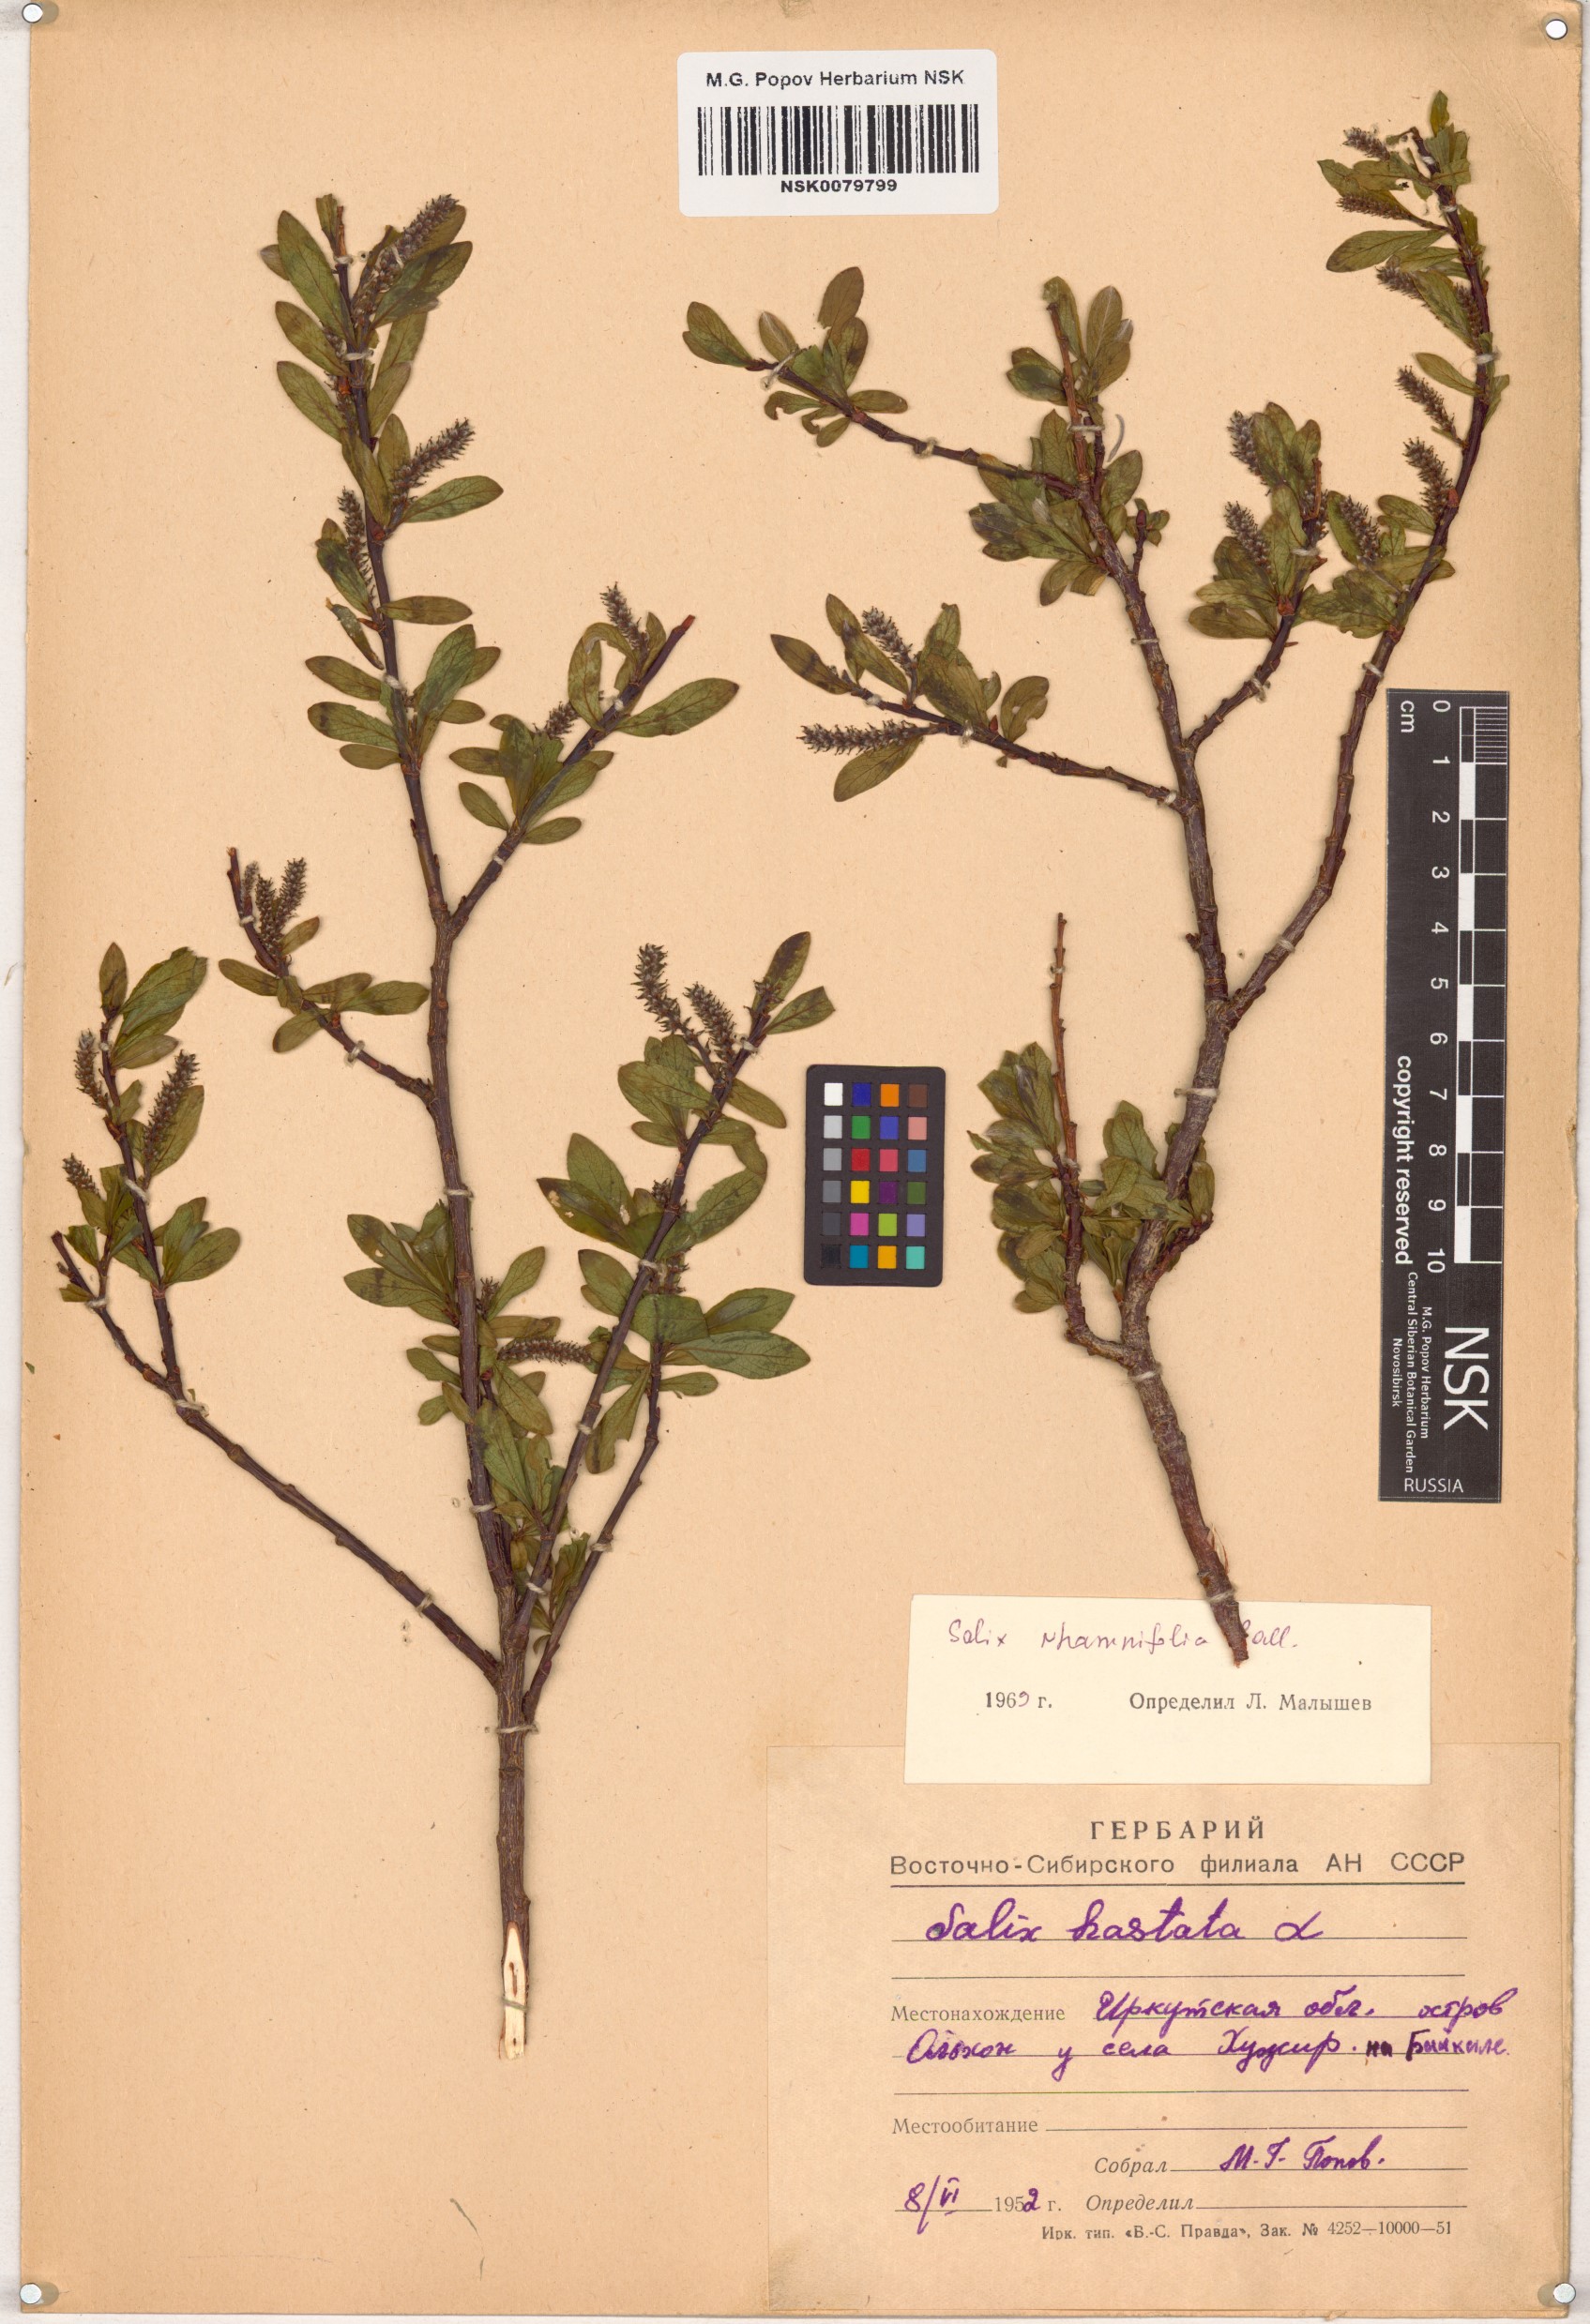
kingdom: Plantae
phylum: Tracheophyta
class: Magnoliopsida
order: Malpighiales
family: Salicaceae
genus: Salix
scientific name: Salix rhamnifolia
